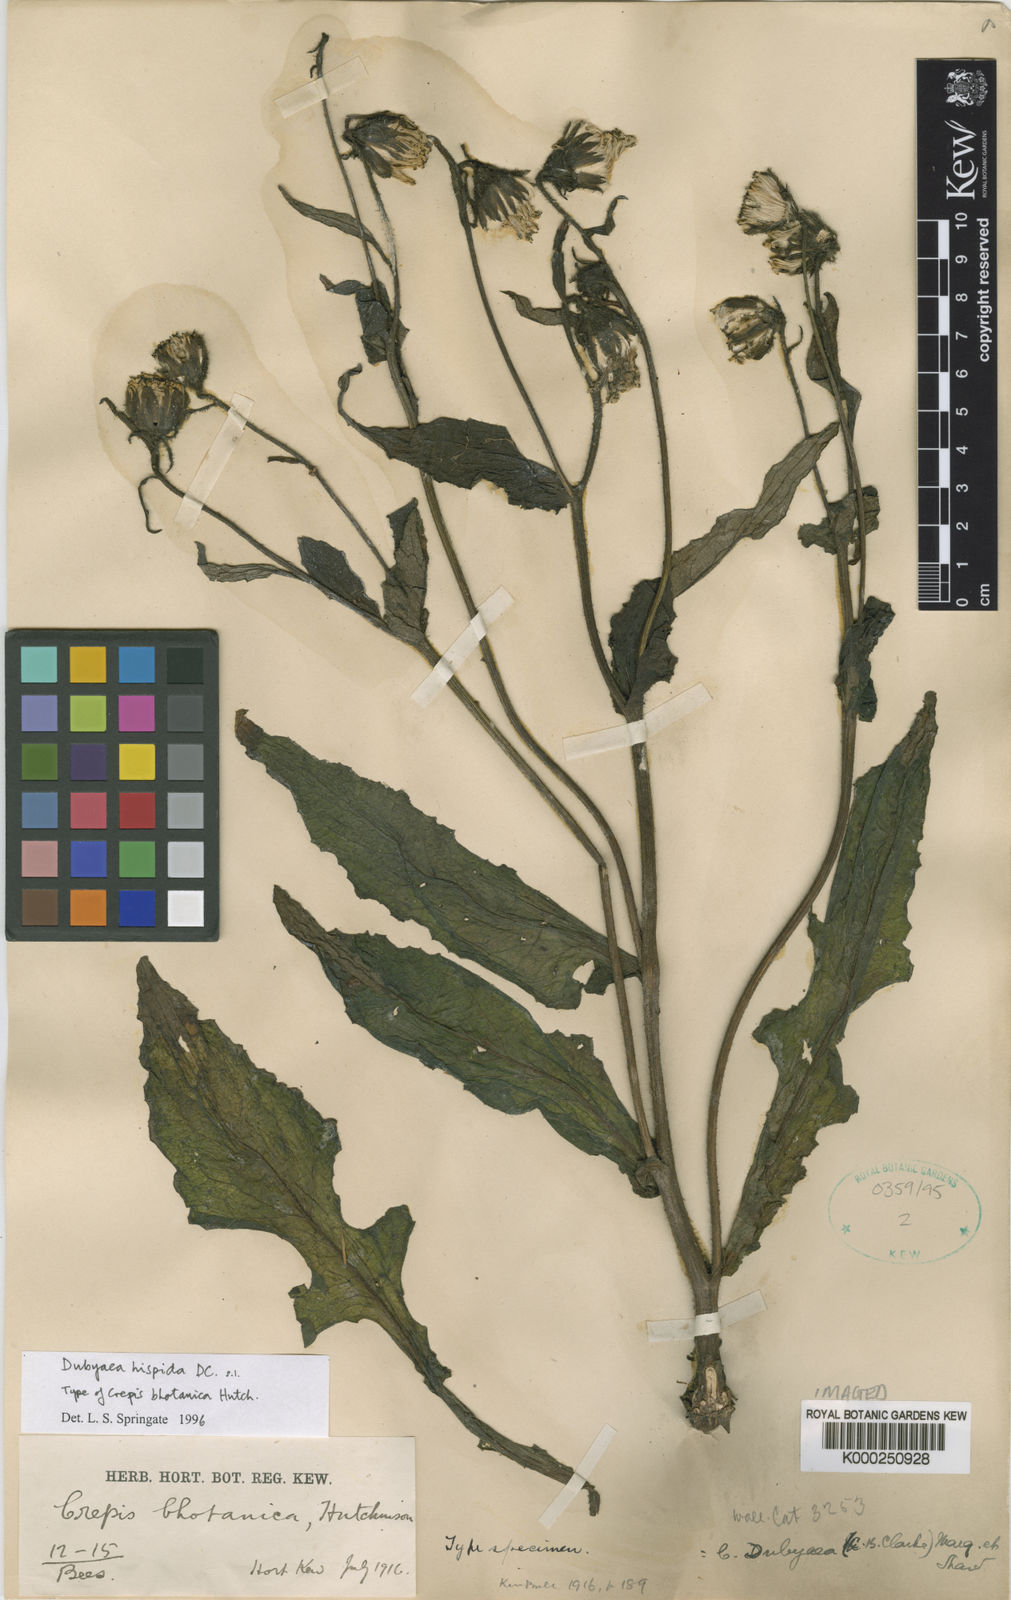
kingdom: Plantae
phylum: Tracheophyta
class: Magnoliopsida
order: Asterales
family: Asteraceae
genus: Dubyaea
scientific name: Dubyaea hispida
